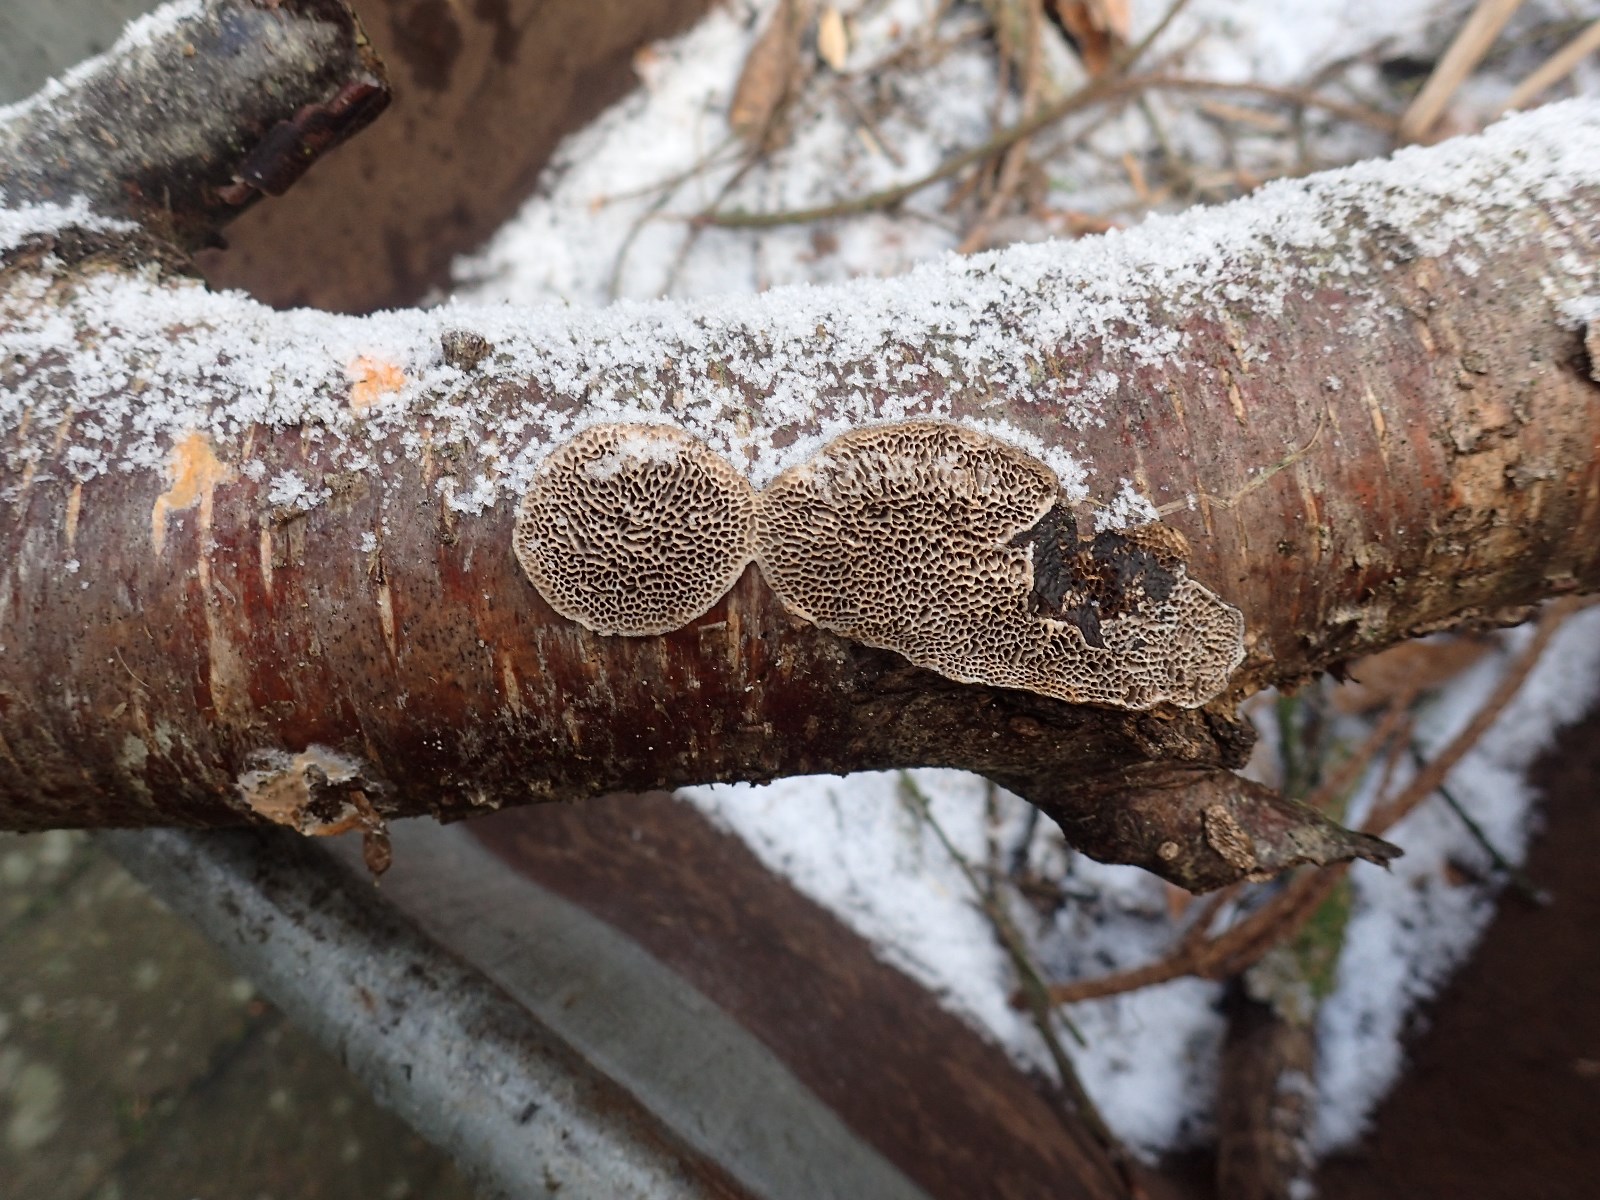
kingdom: Fungi
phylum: Basidiomycota
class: Agaricomycetes
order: Polyporales
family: Polyporaceae
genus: Podofomes
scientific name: Podofomes mollis
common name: blød begporesvamp
